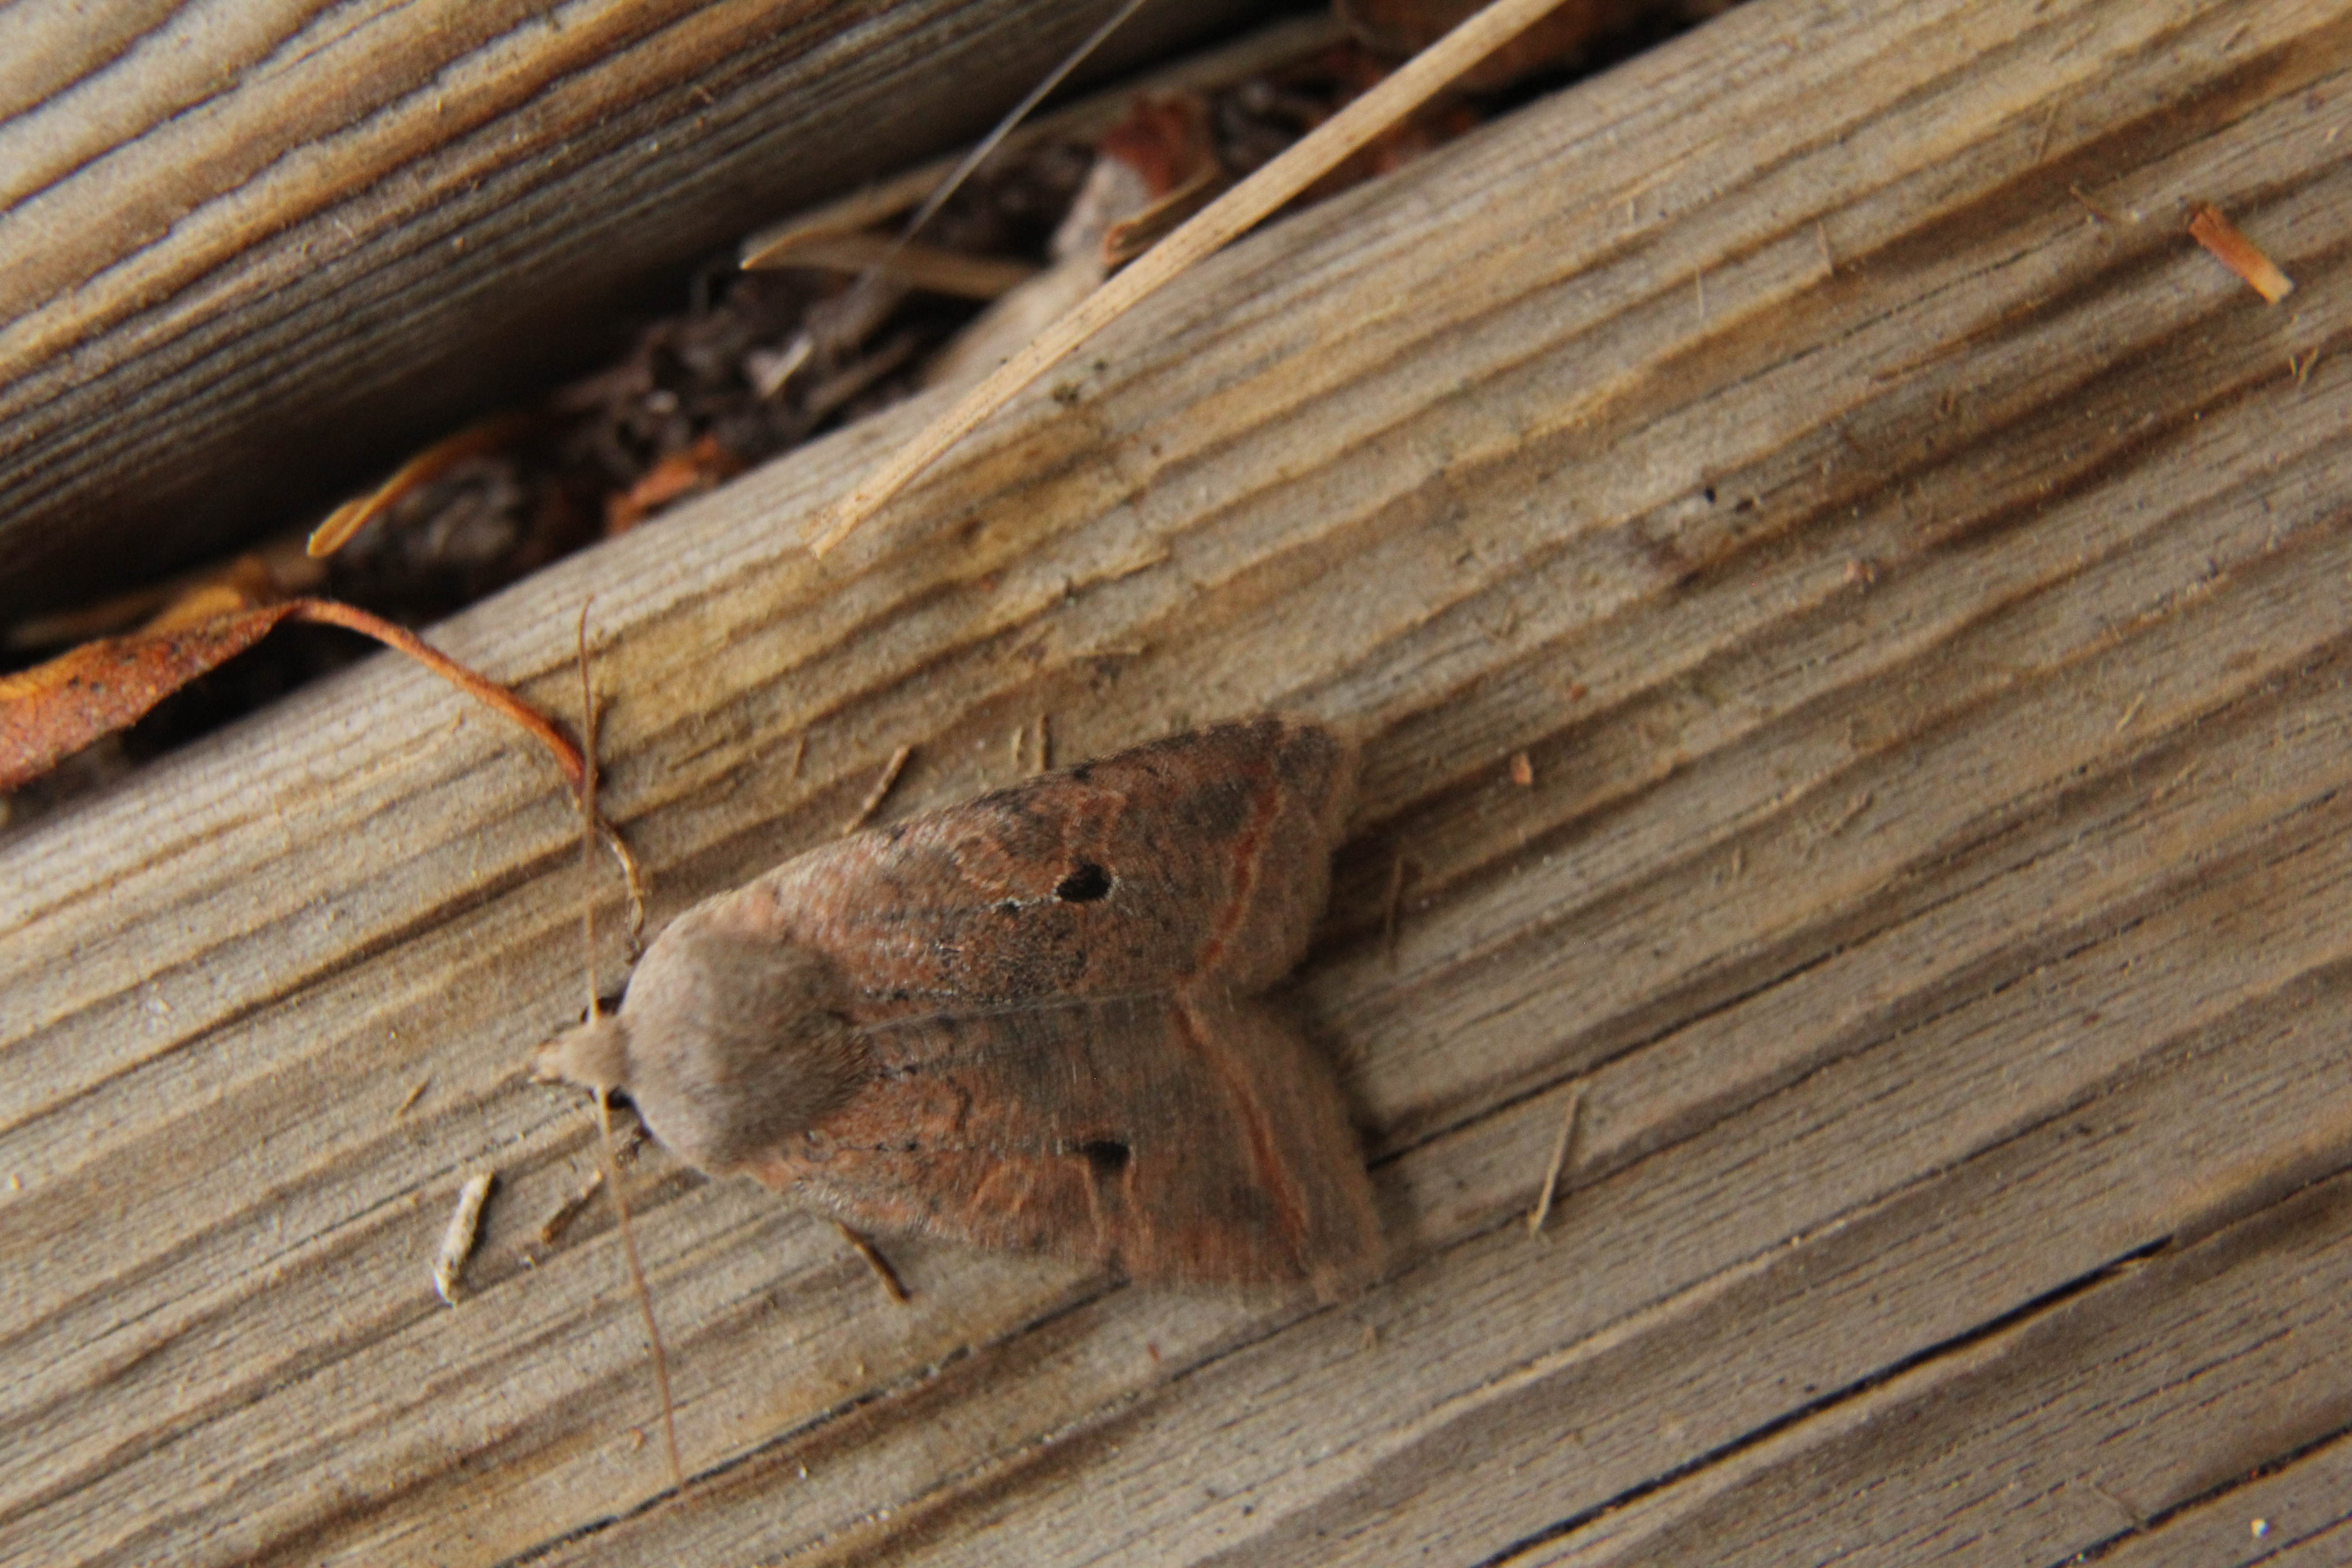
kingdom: Animalia
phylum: Arthropoda
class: Insecta
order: Lepidoptera
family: Noctuidae
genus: Agrochola
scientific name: Agrochola Leptologia lota
